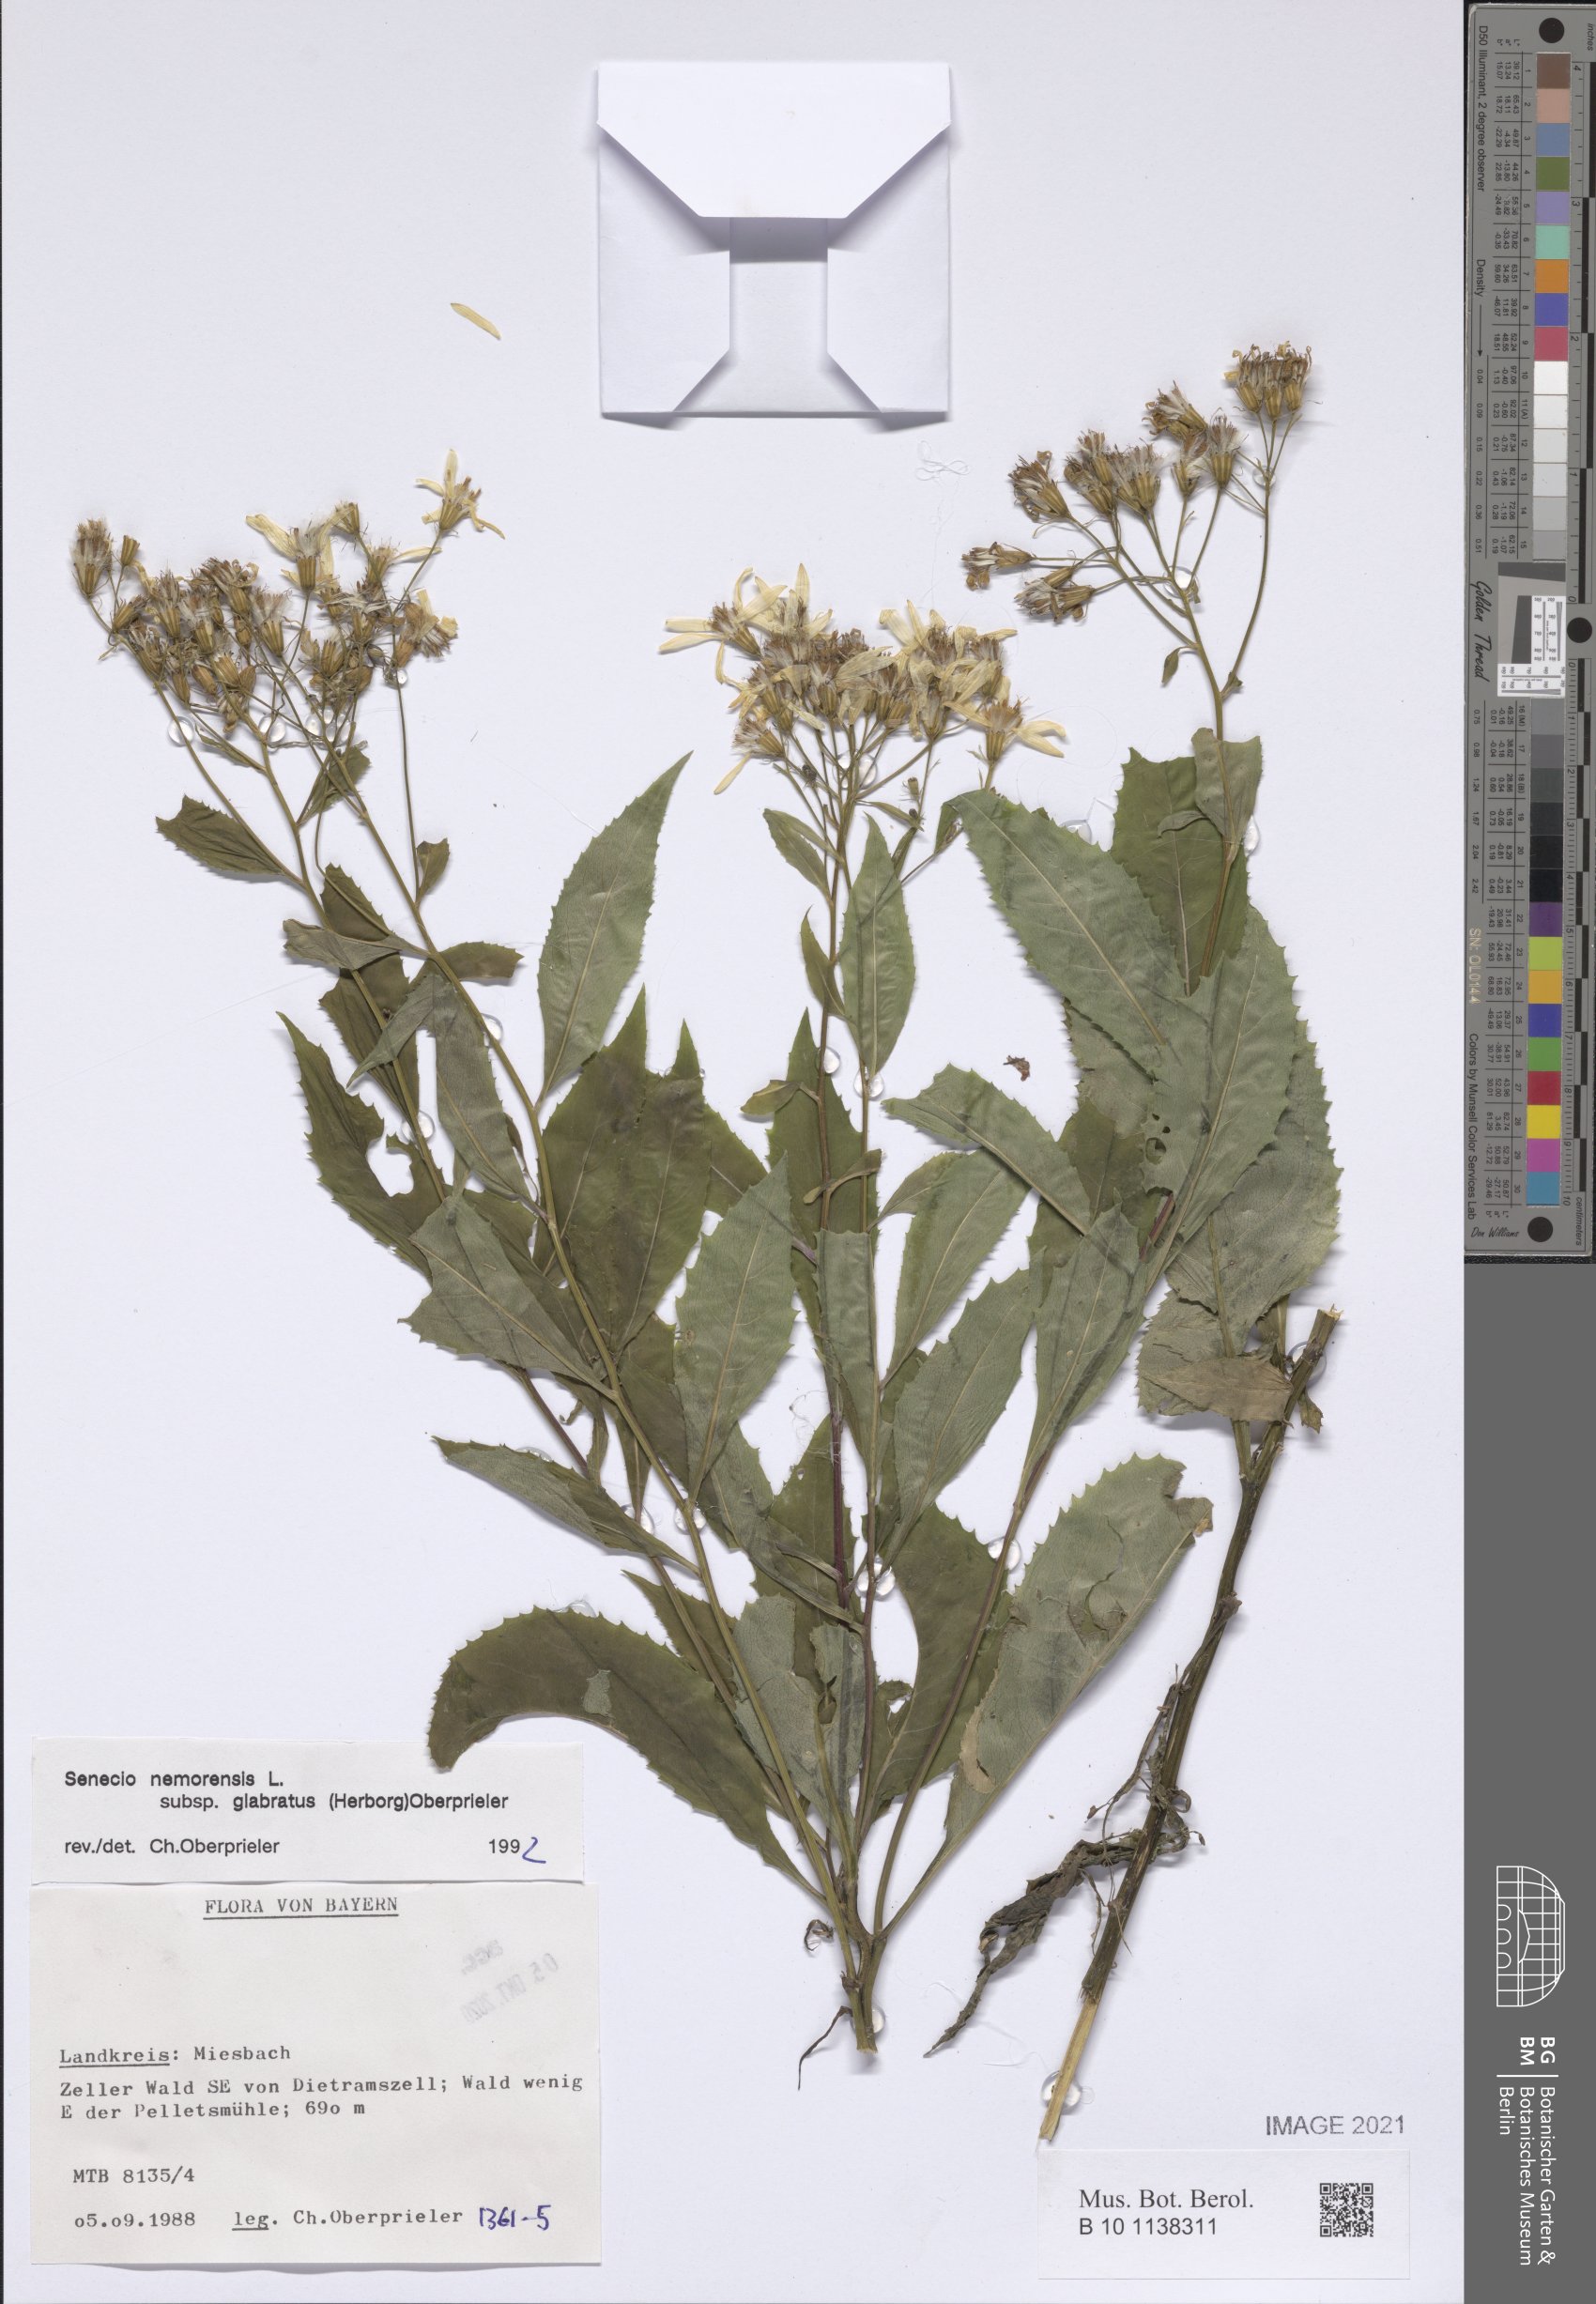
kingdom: Plantae
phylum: Tracheophyta
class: Magnoliopsida
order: Asterales
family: Asteraceae
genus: Senecio
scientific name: Senecio germanicus
